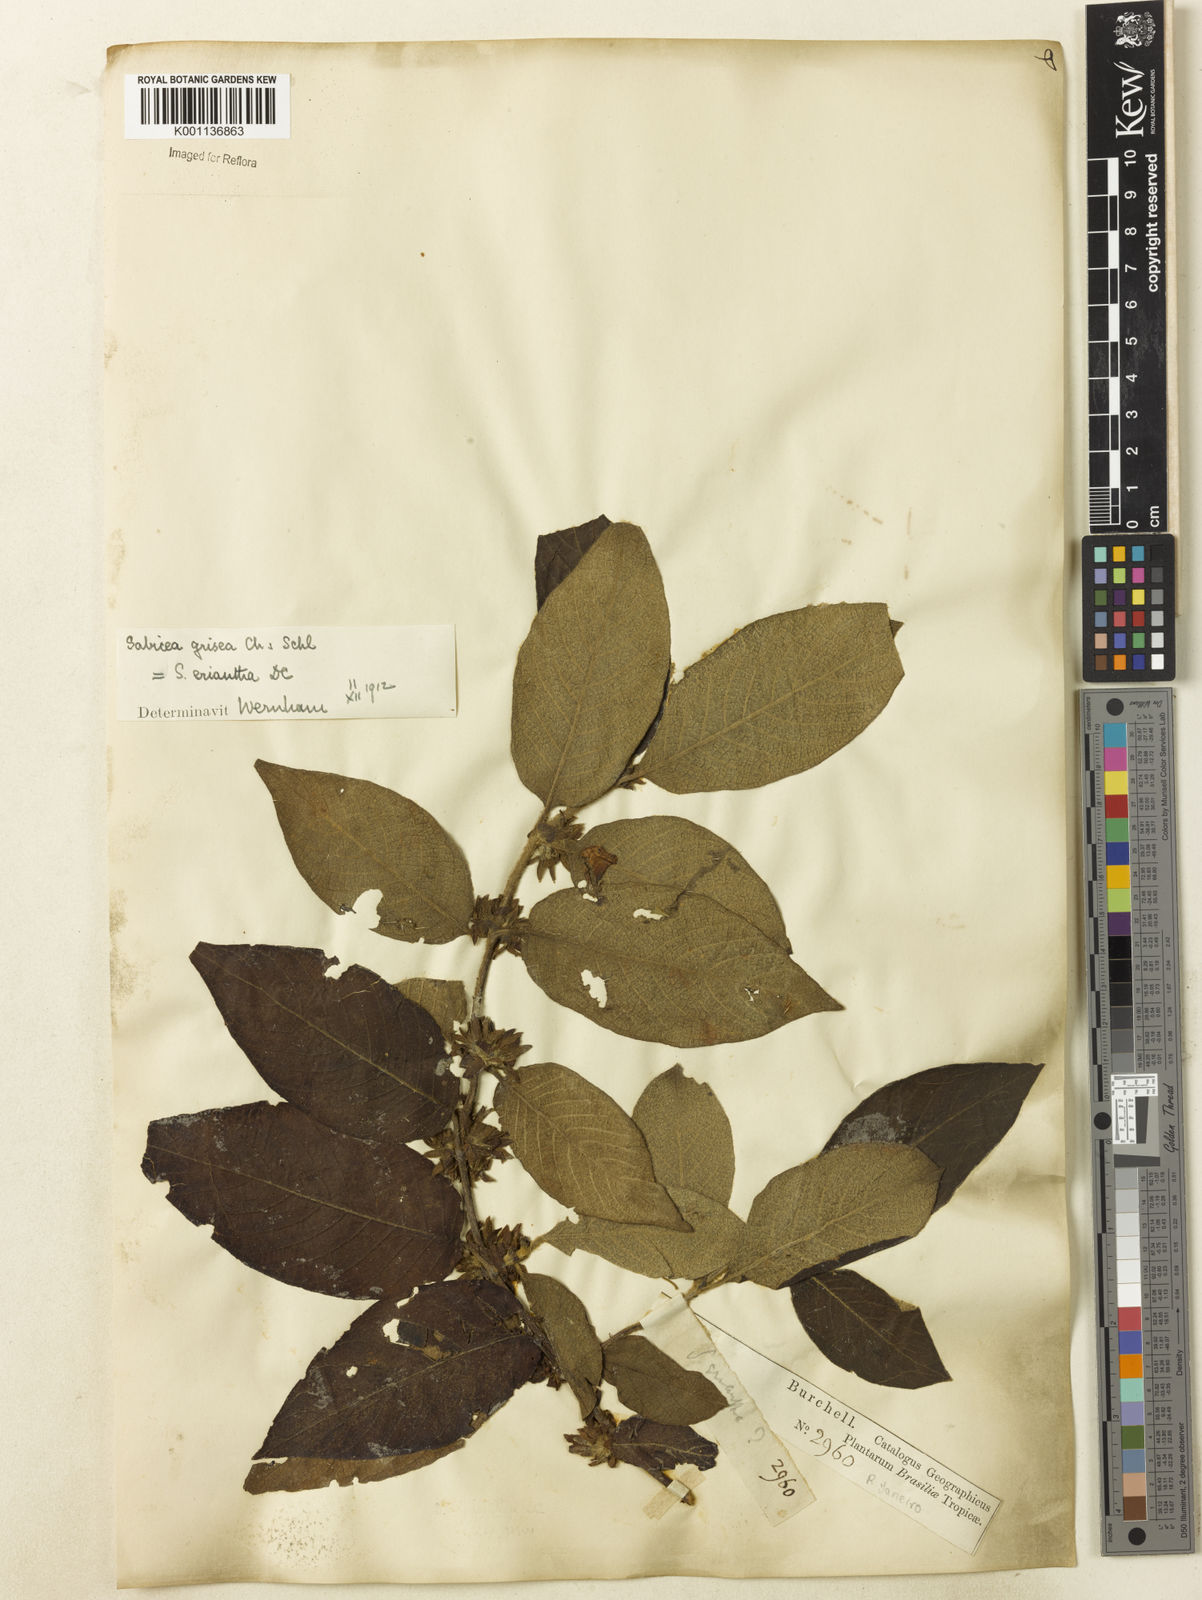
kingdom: Plantae
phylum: Tracheophyta
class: Magnoliopsida
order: Gentianales
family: Rubiaceae
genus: Sabicea
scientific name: Sabicea grisea
